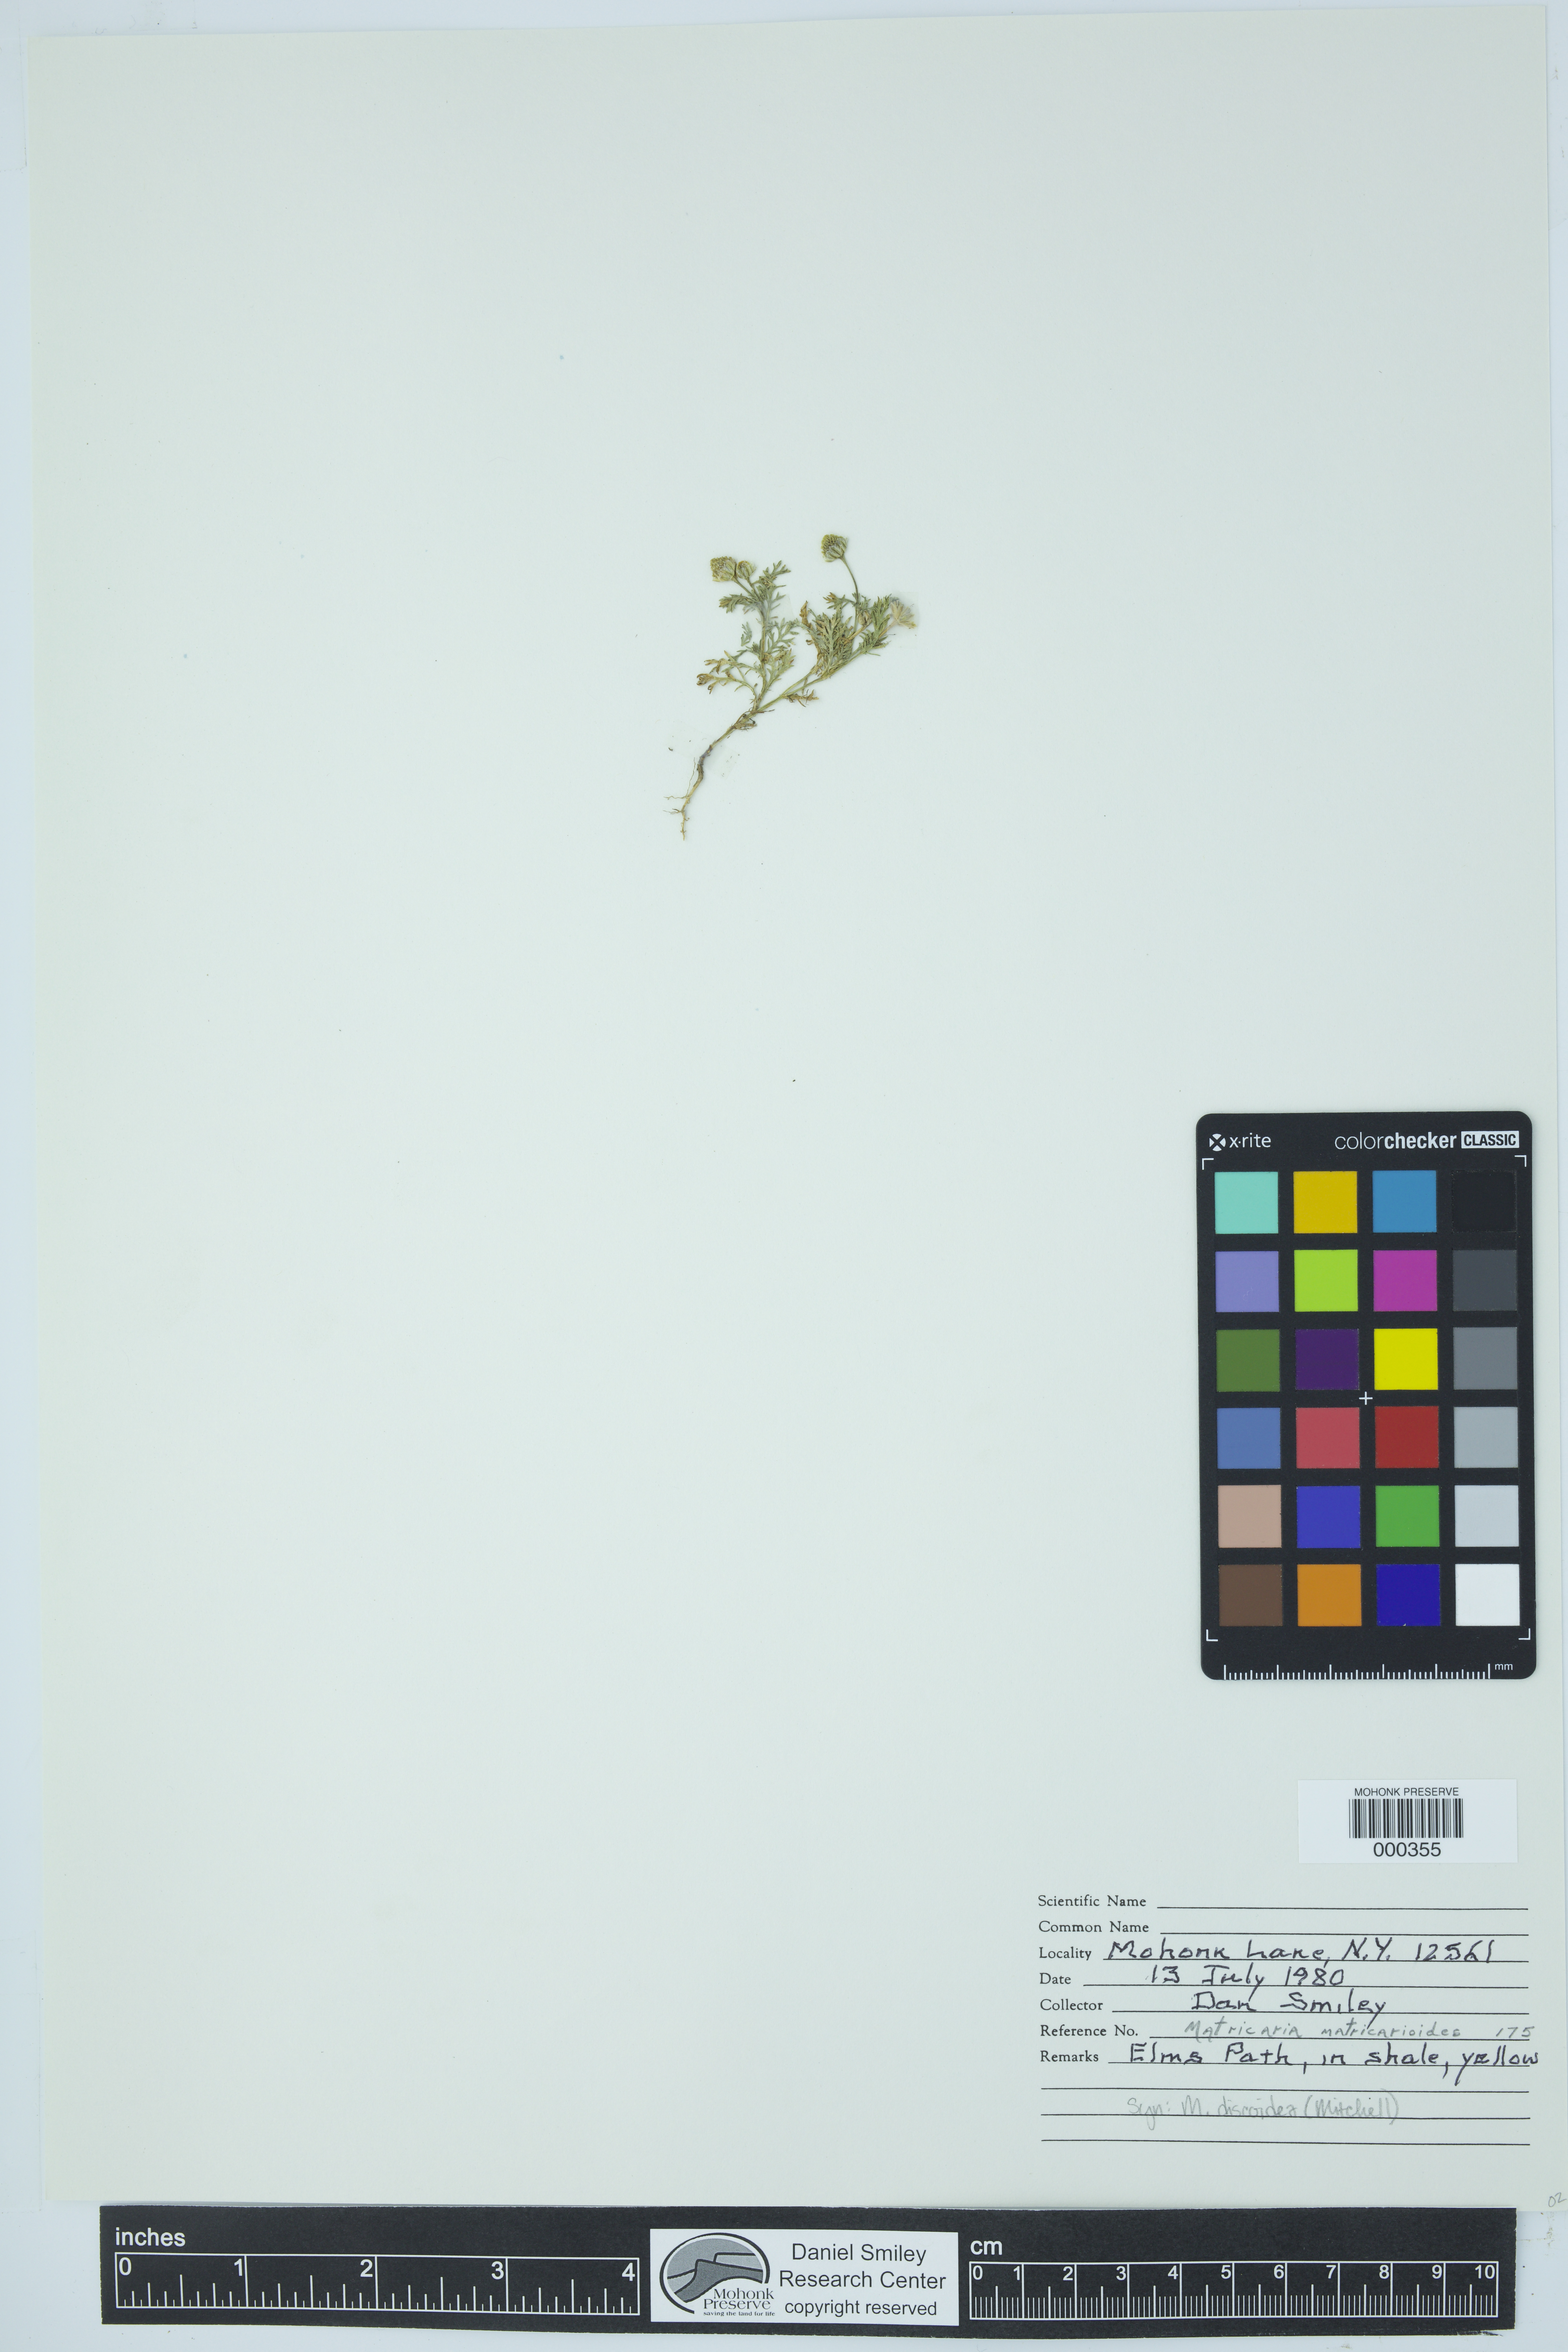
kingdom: Plantae
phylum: Tracheophyta
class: Magnoliopsida
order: Asterales
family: Asteraceae
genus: Matricaria
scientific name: Matricaria discoidea
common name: Disc mayweed
